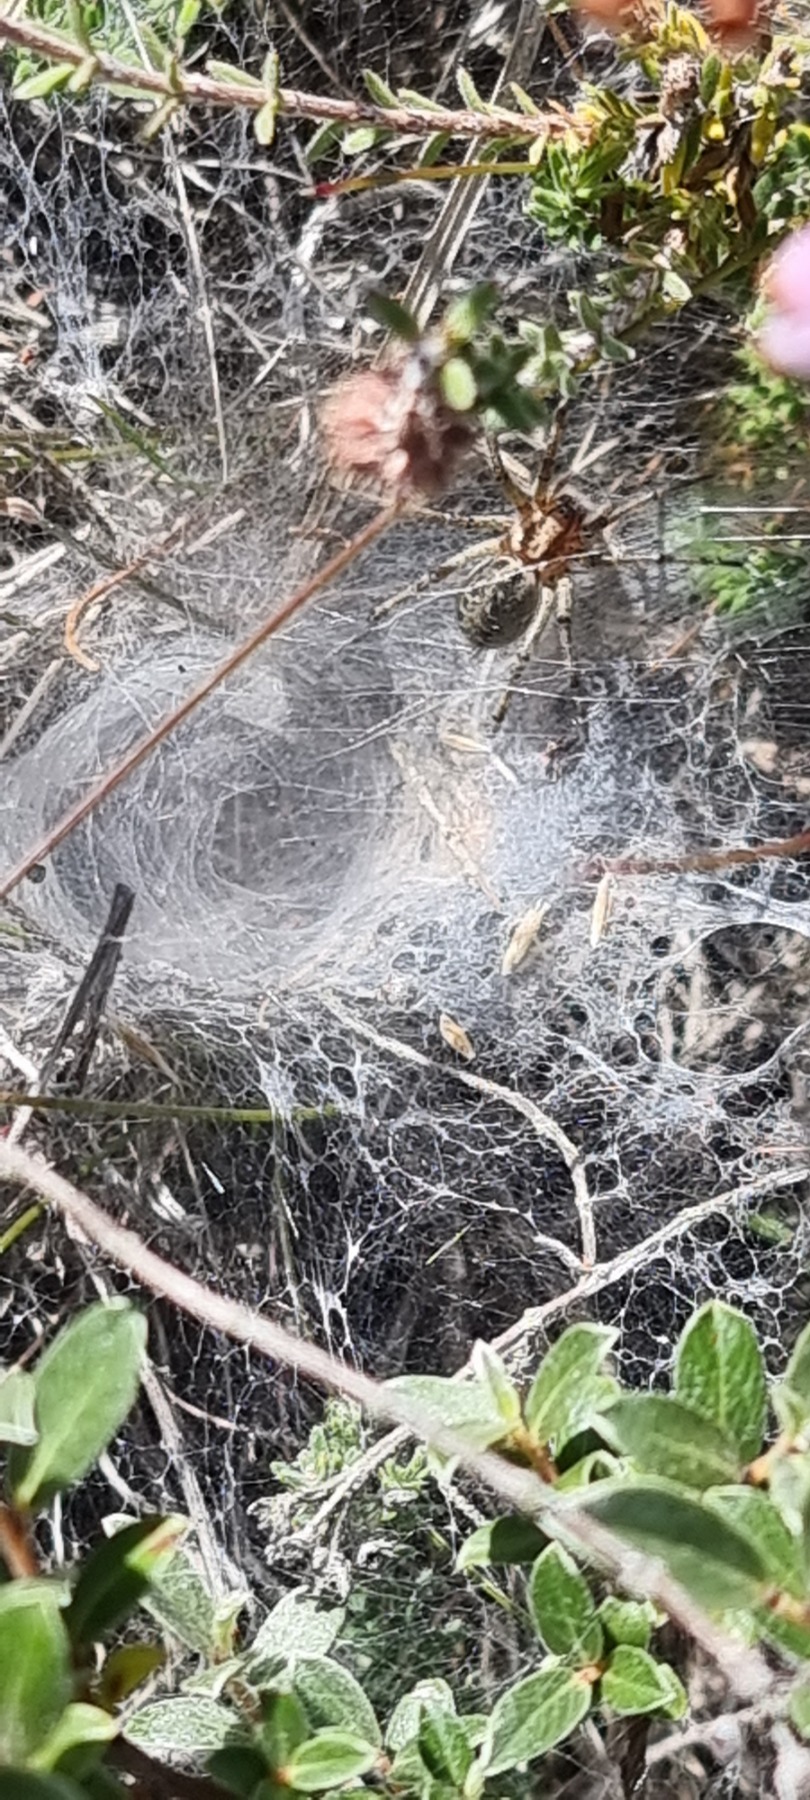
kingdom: Animalia
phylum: Arthropoda
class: Arachnida
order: Araneae
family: Agelenidae
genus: Agelena
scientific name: Agelena labyrinthica
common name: Labyrintedderkop
